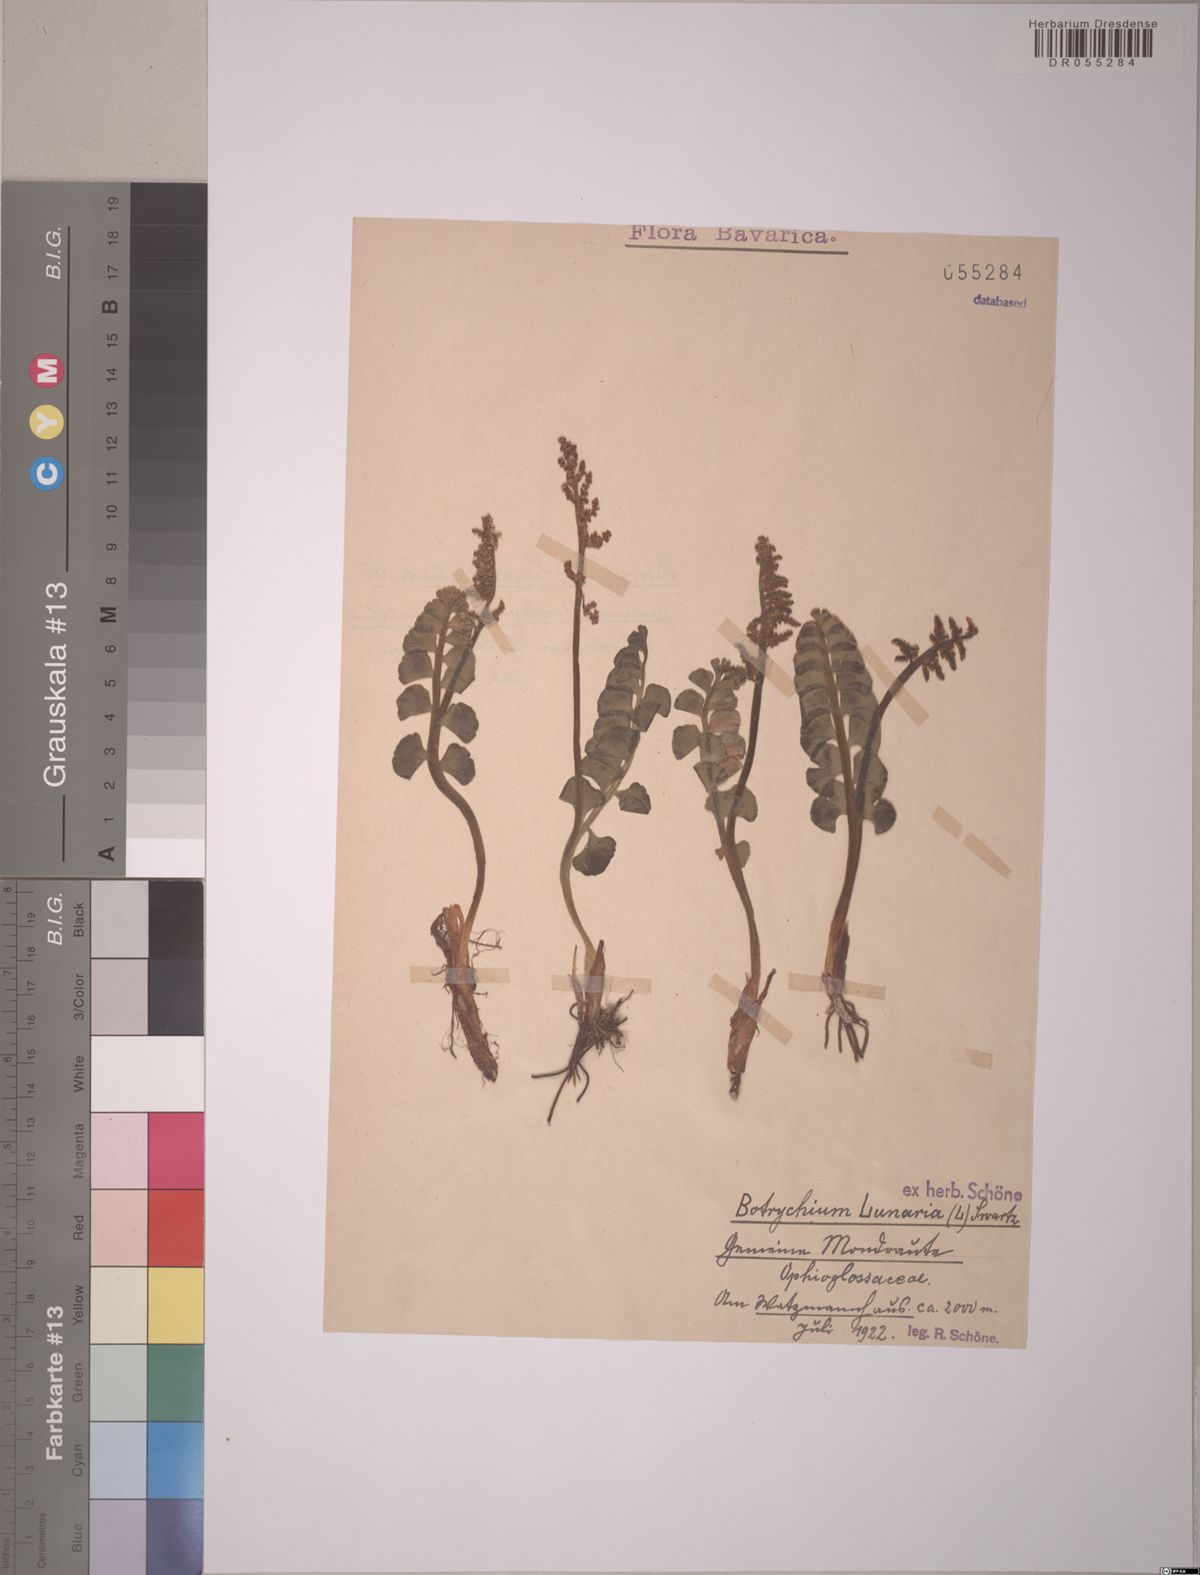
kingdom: Plantae
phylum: Tracheophyta
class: Polypodiopsida
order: Ophioglossales
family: Ophioglossaceae
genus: Botrychium
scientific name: Botrychium lunaria
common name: Moonwort
